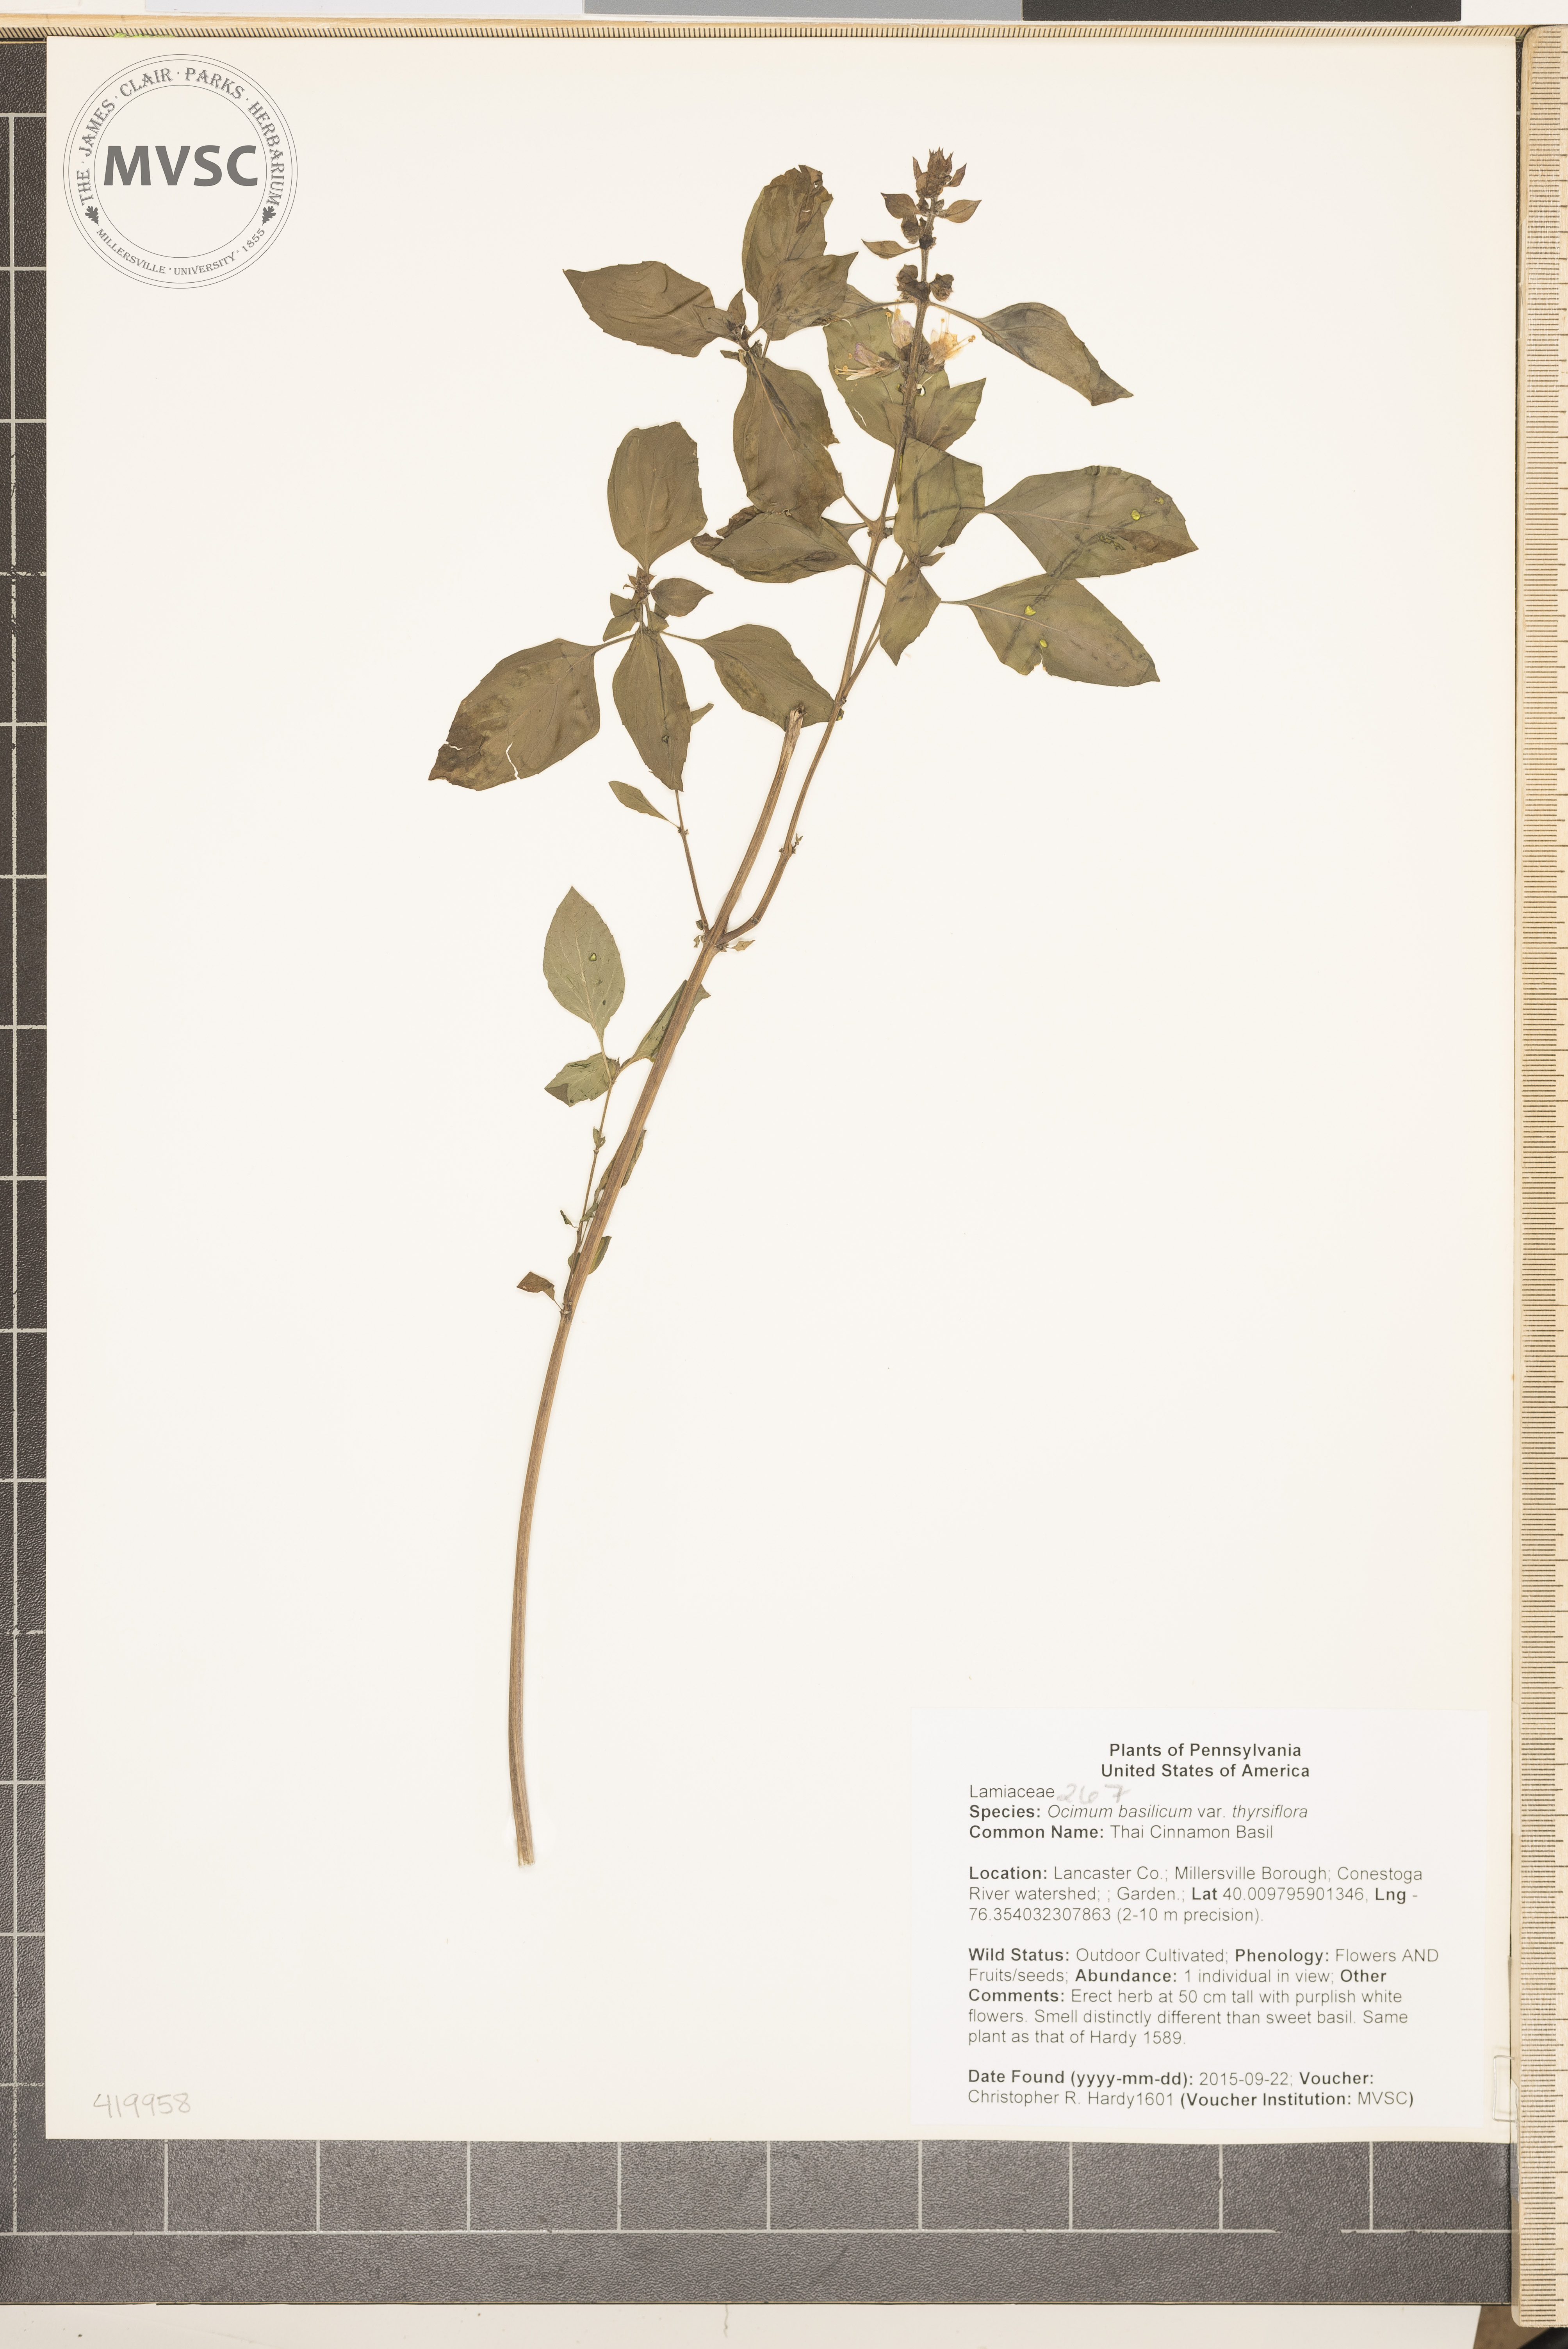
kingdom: Plantae
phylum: Tracheophyta
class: Magnoliopsida
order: Lamiales
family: Lamiaceae
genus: Ocimum
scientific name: Ocimum basilicum
